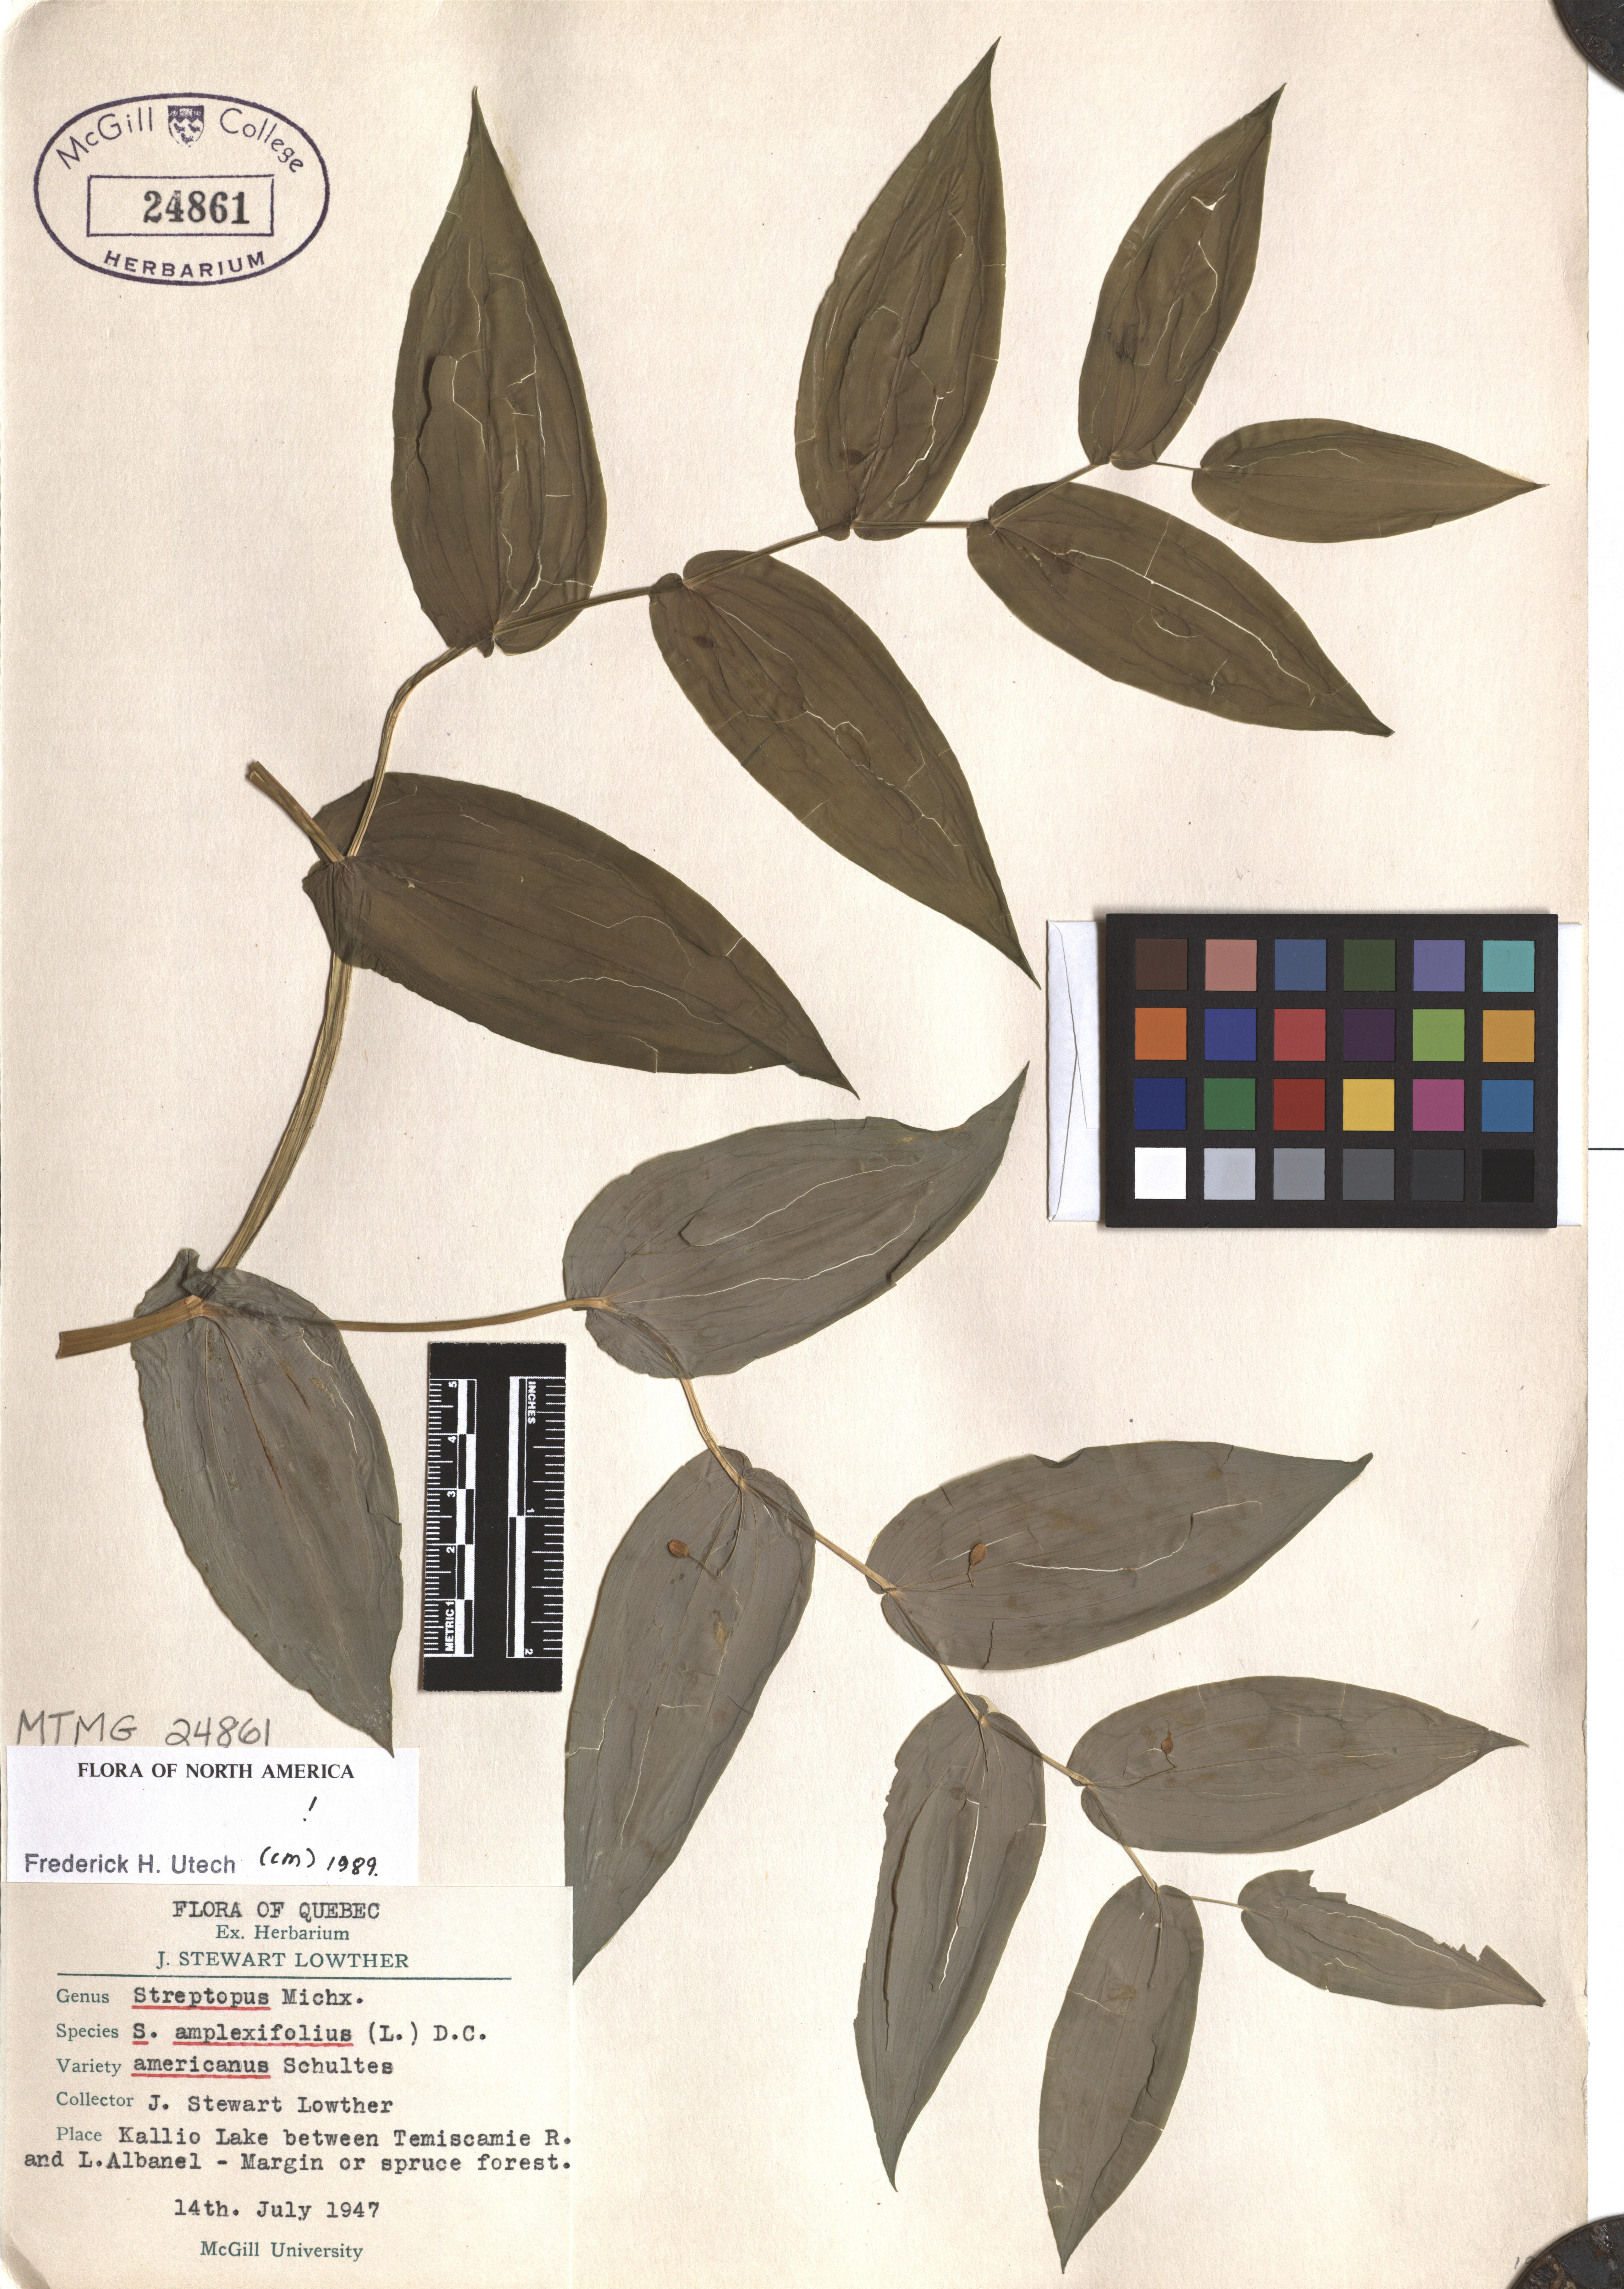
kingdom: Plantae
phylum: Tracheophyta
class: Liliopsida
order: Liliales
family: Liliaceae
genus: Streptopus
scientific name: Streptopus amplexifolius
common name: Clasp twisted stalk
